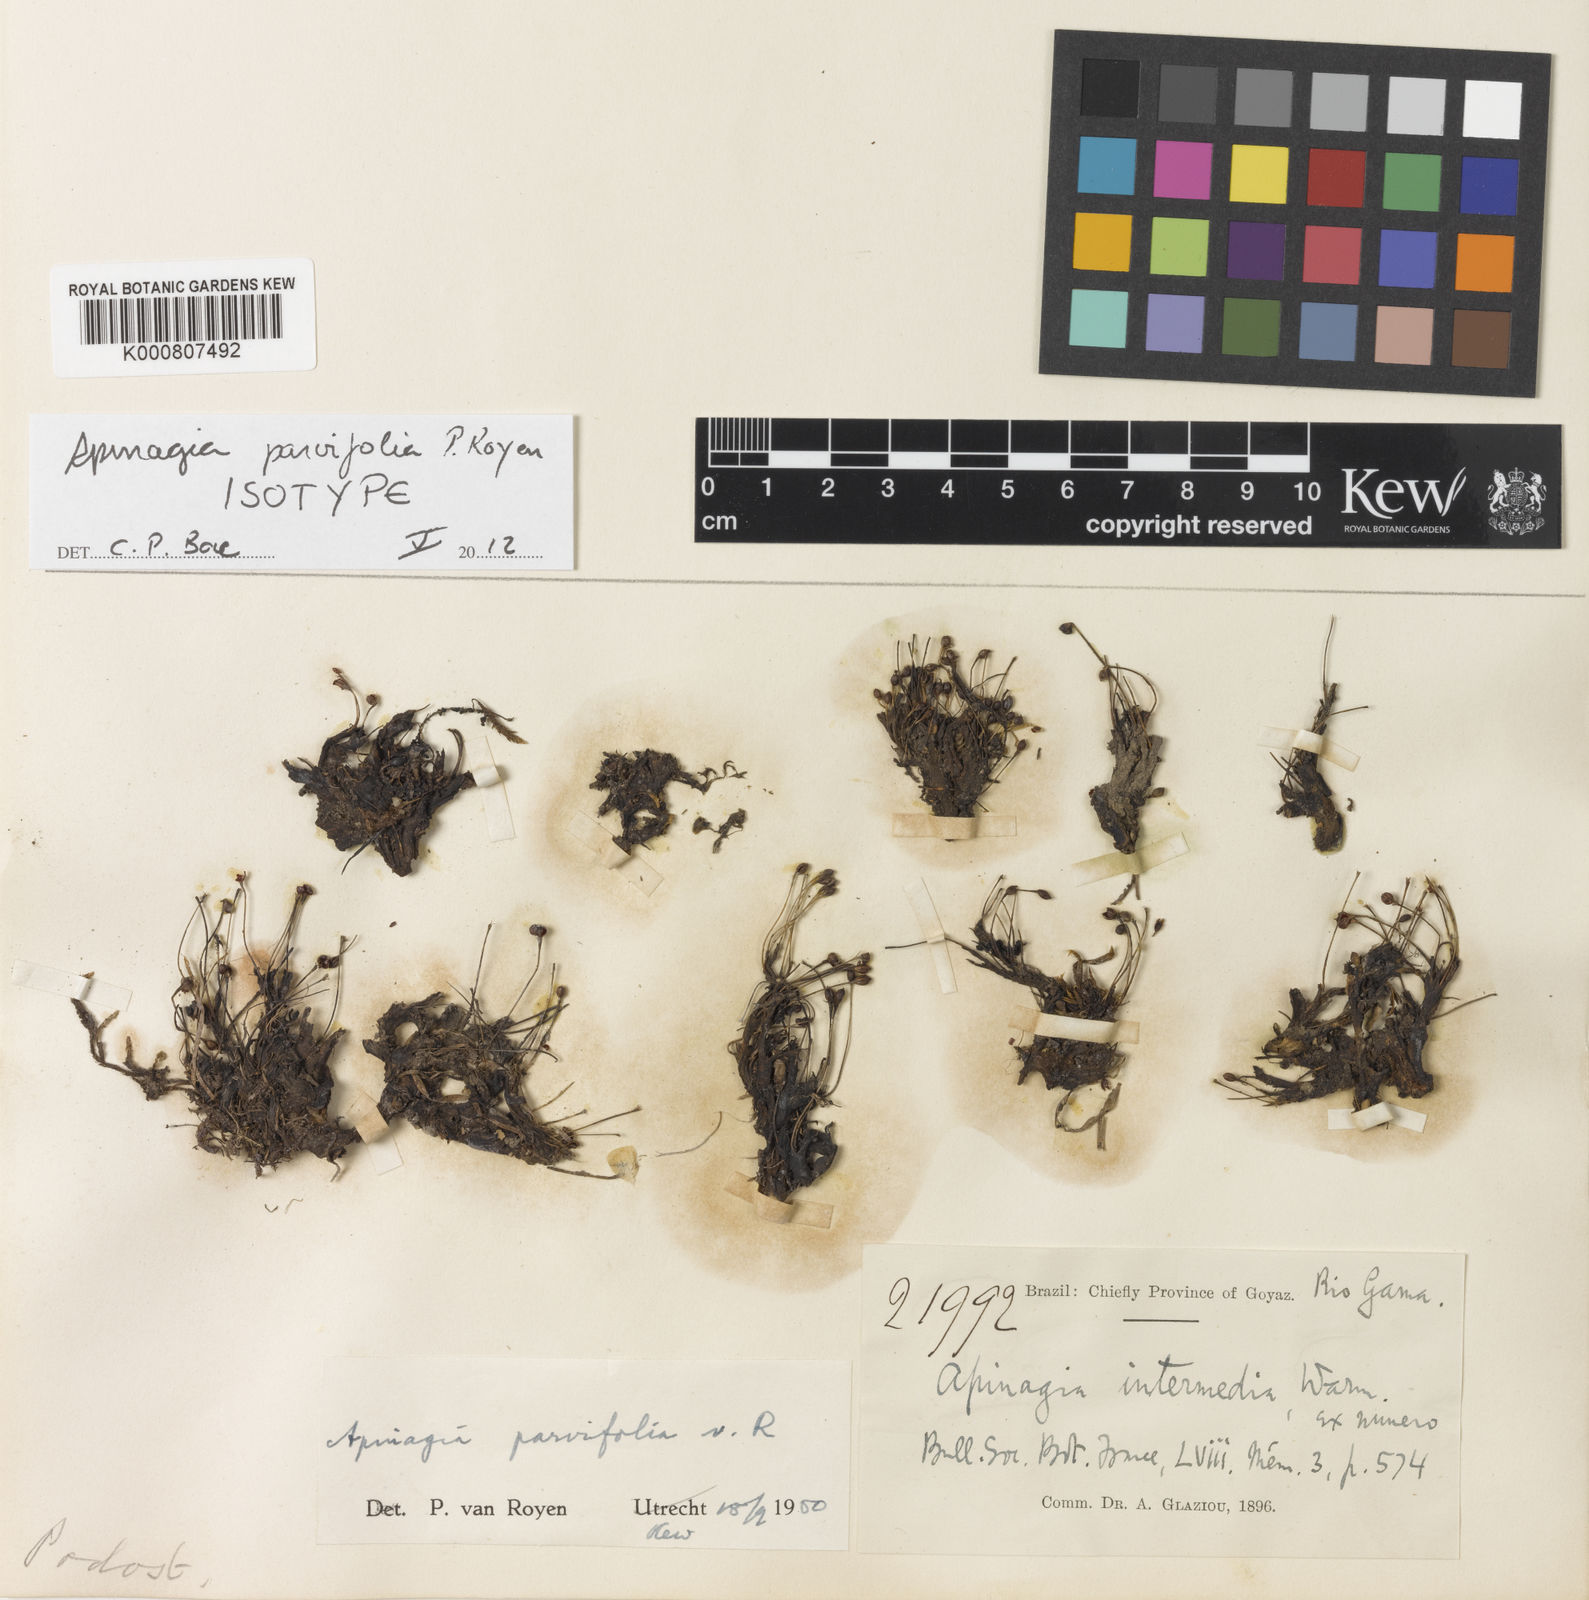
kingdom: Plantae
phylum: Tracheophyta
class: Magnoliopsida
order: Malpighiales
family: Podostemaceae
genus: Lophogyne
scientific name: Lophogyne fimbrifolia
